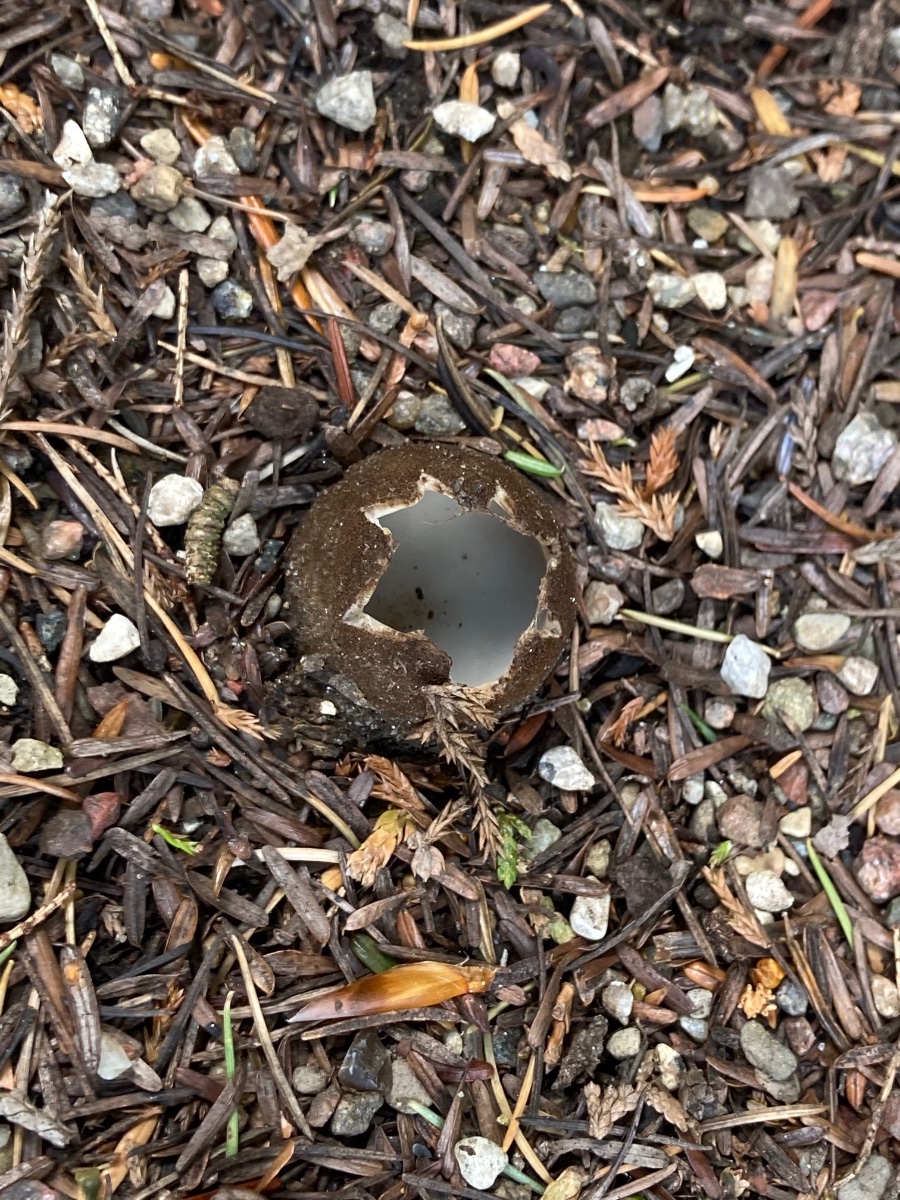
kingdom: Fungi
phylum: Ascomycota
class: Pezizomycetes
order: Pezizales
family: Pyronemataceae
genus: Geopora
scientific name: Geopora sumneriana
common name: vår-jordbæger
